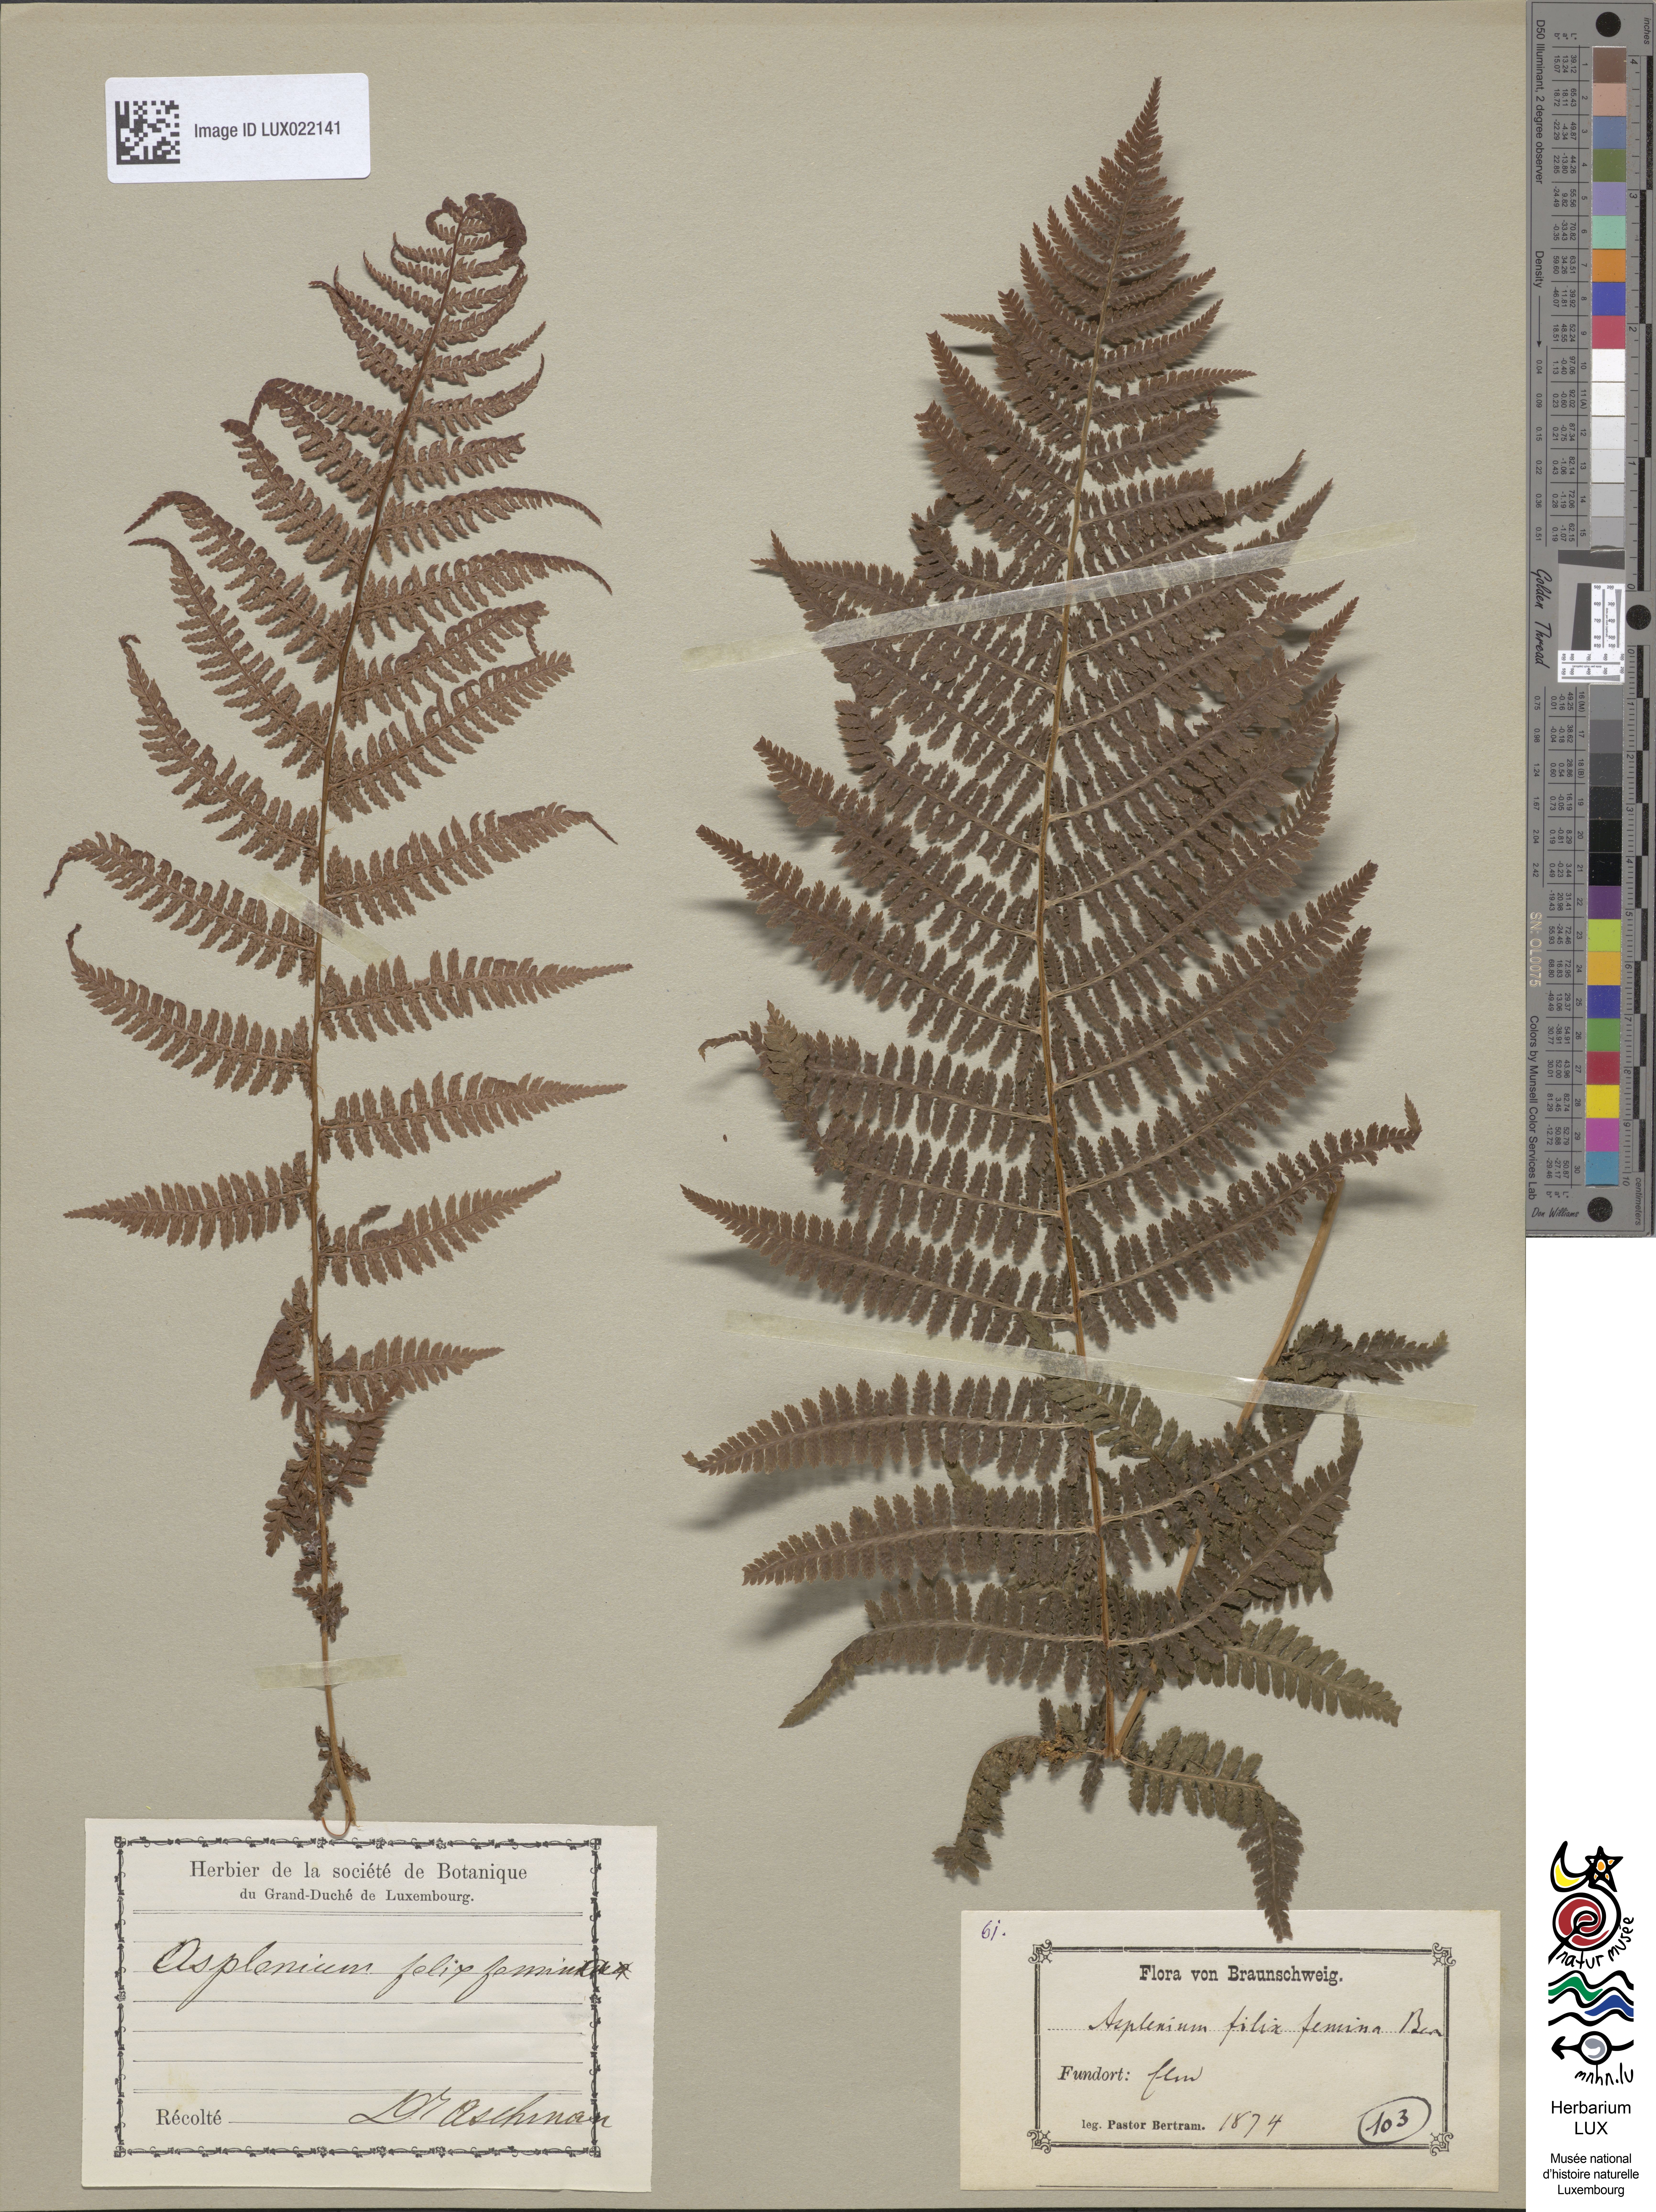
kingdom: Plantae
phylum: Tracheophyta
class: Polypodiopsida
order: Polypodiales
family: Athyriaceae
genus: Athyrium
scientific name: Athyrium filix-femina
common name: Lady fern
